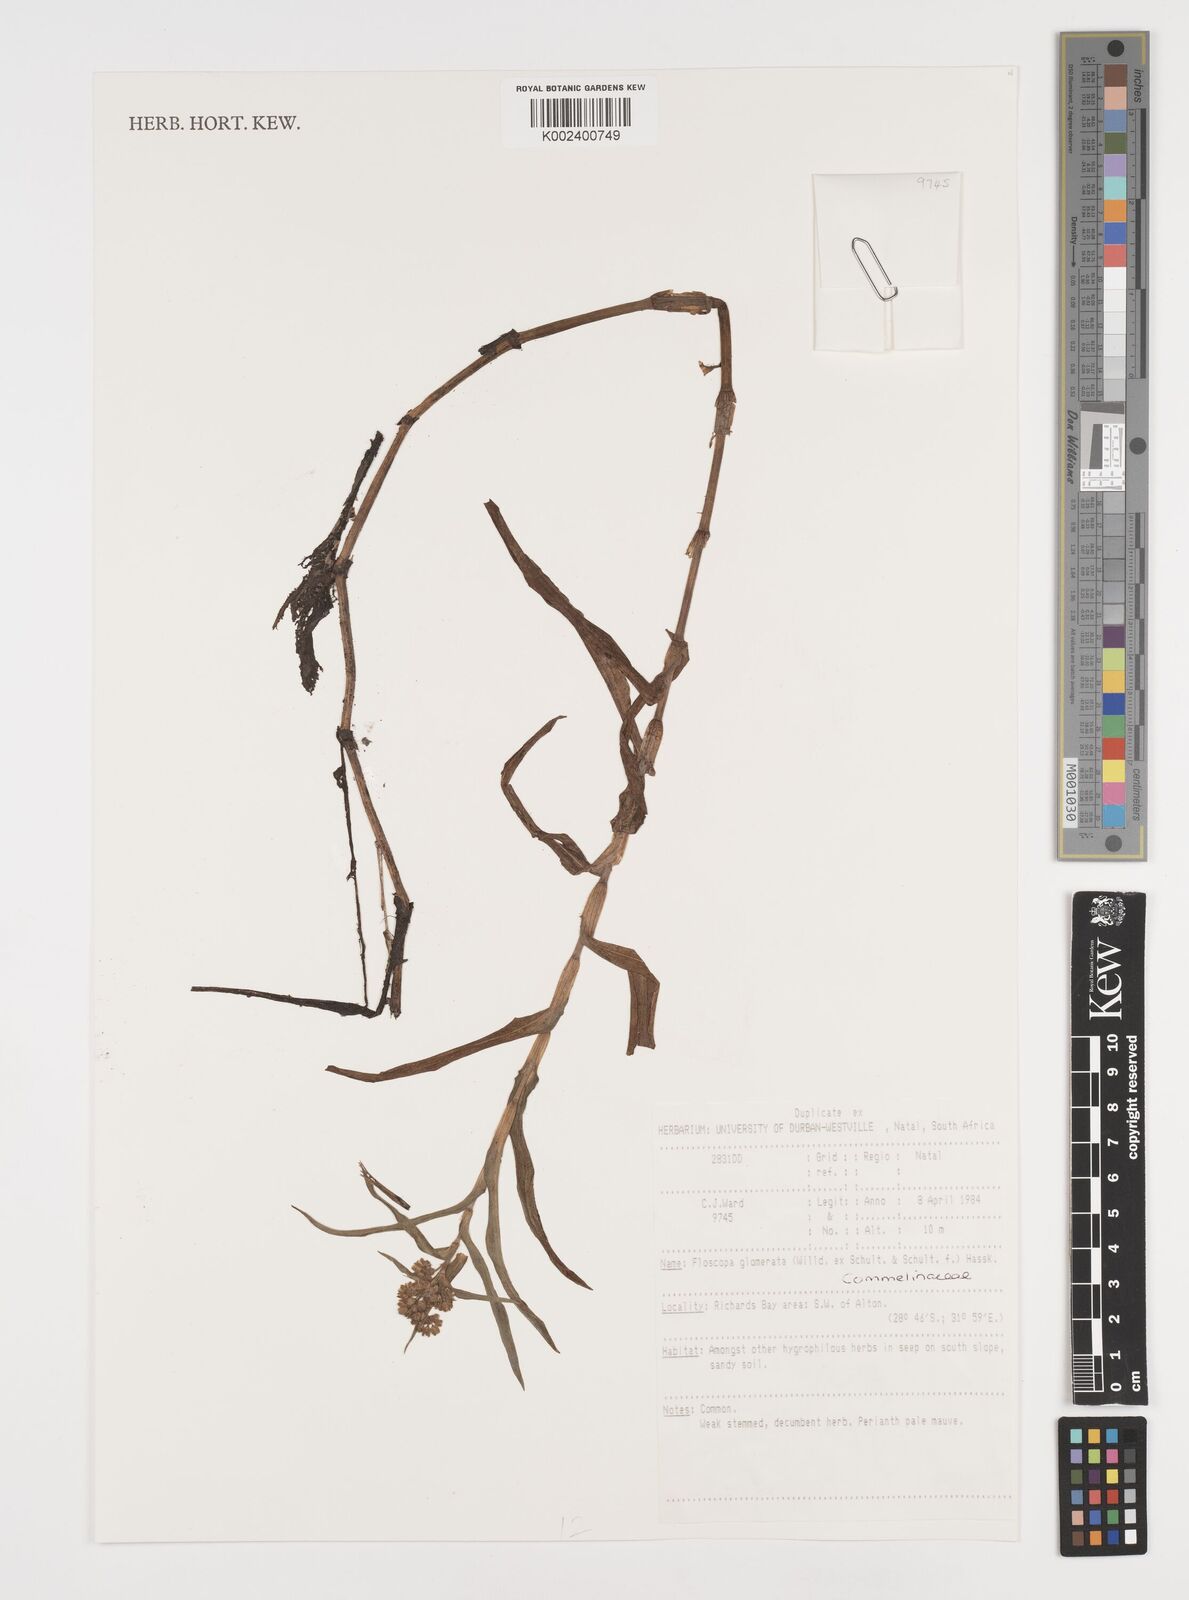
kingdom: Plantae
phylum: Tracheophyta
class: Liliopsida
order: Commelinales
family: Commelinaceae
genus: Floscopa
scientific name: Floscopa glomerata
